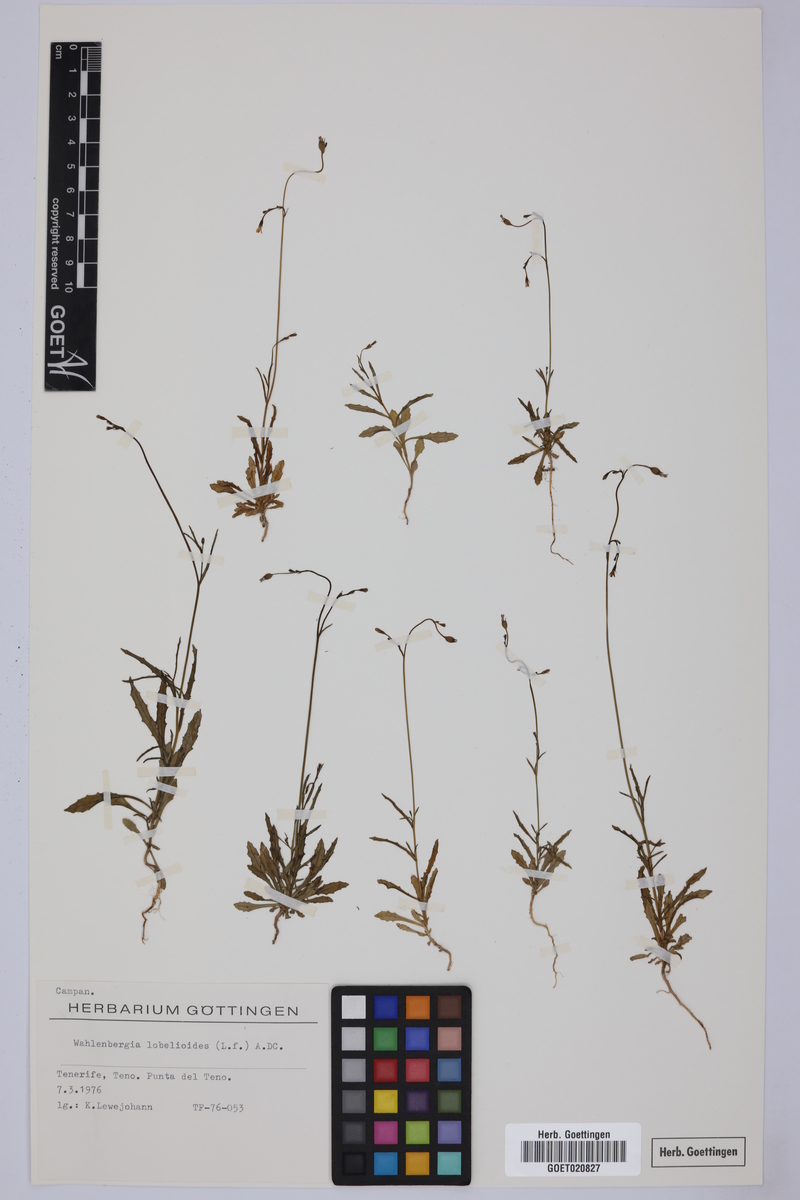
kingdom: Plantae
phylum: Tracheophyta
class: Magnoliopsida
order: Asterales
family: Campanulaceae
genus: Wahlenbergia
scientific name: Wahlenbergia lobelioides
